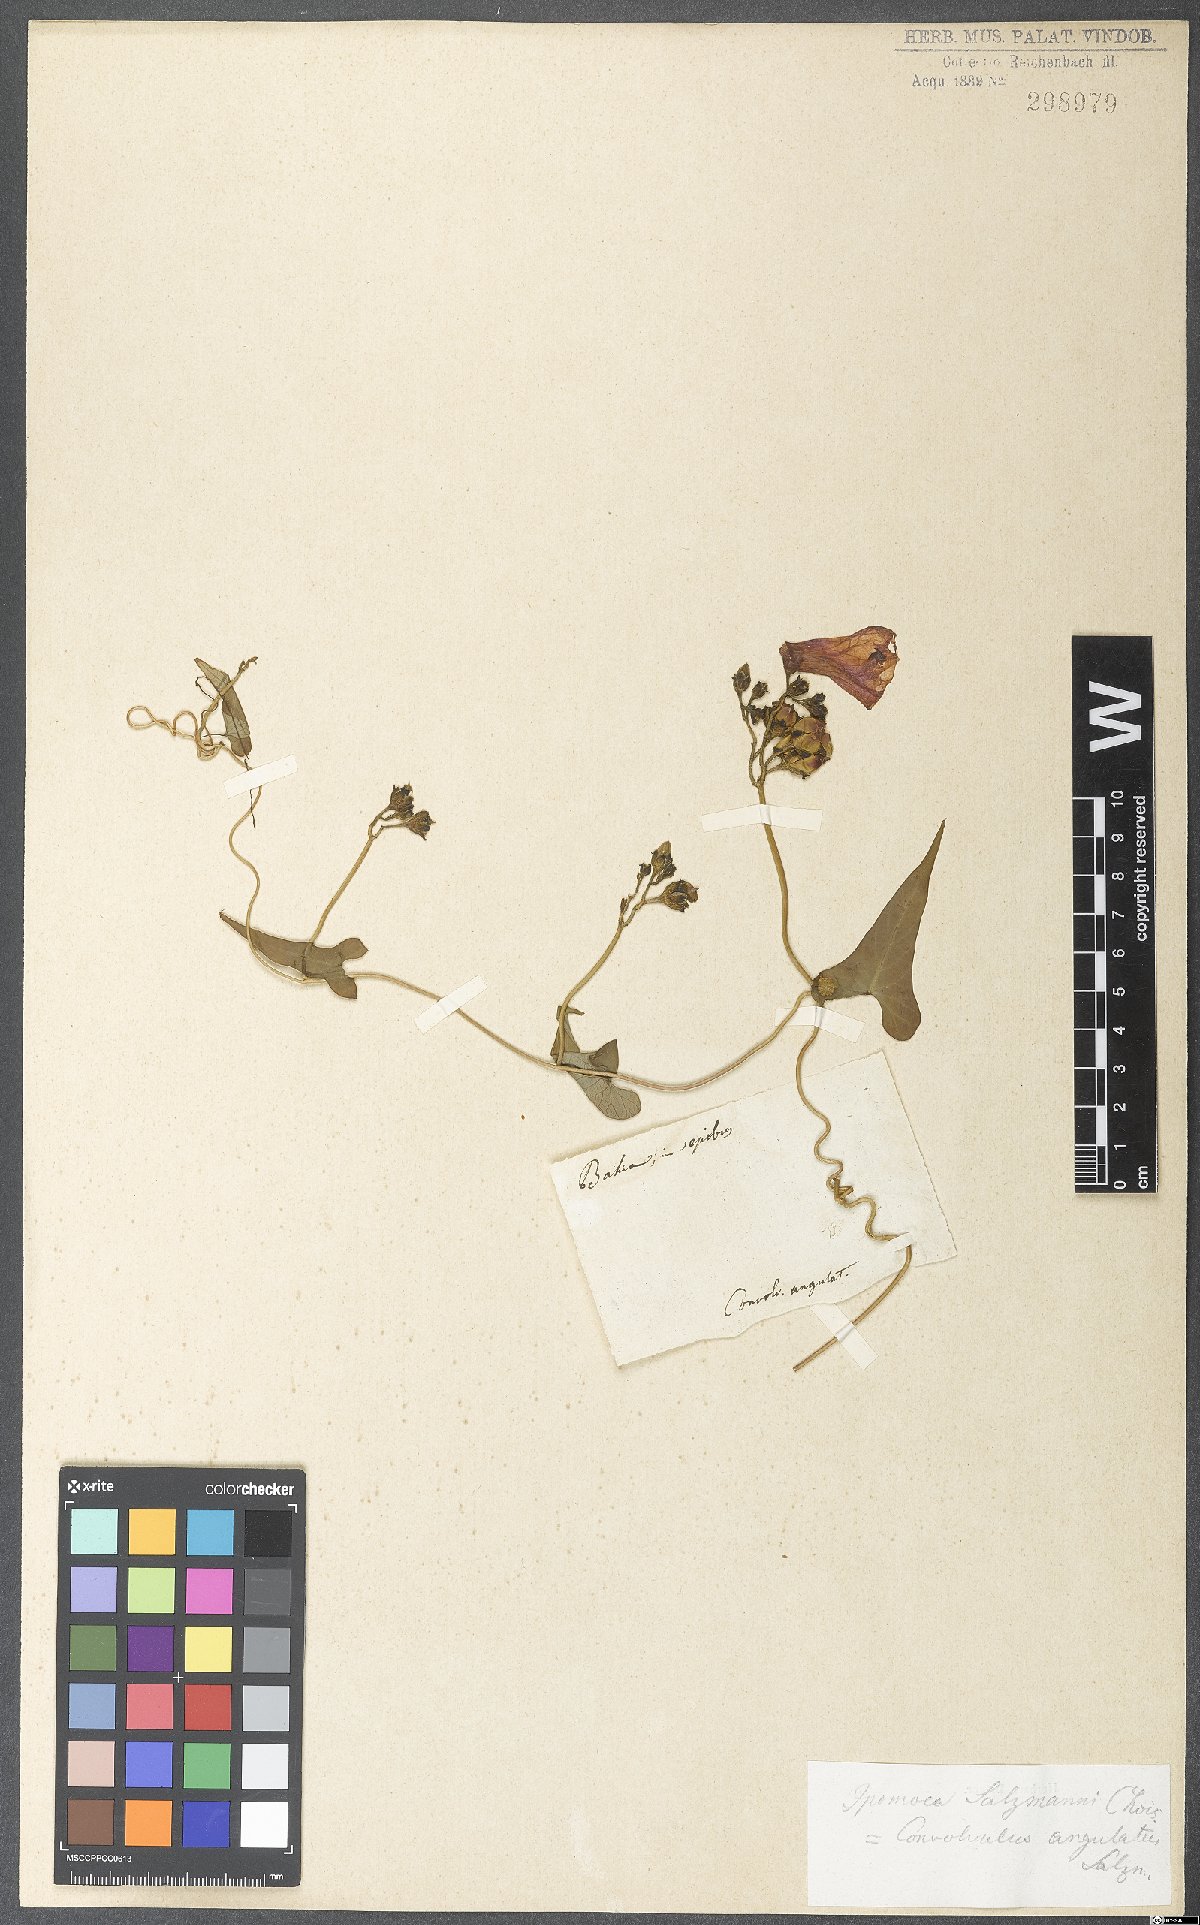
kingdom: Plantae
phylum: Tracheophyta
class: Magnoliopsida
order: Solanales
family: Convolvulaceae
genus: Ipomoea
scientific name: Ipomoea bahiensis
